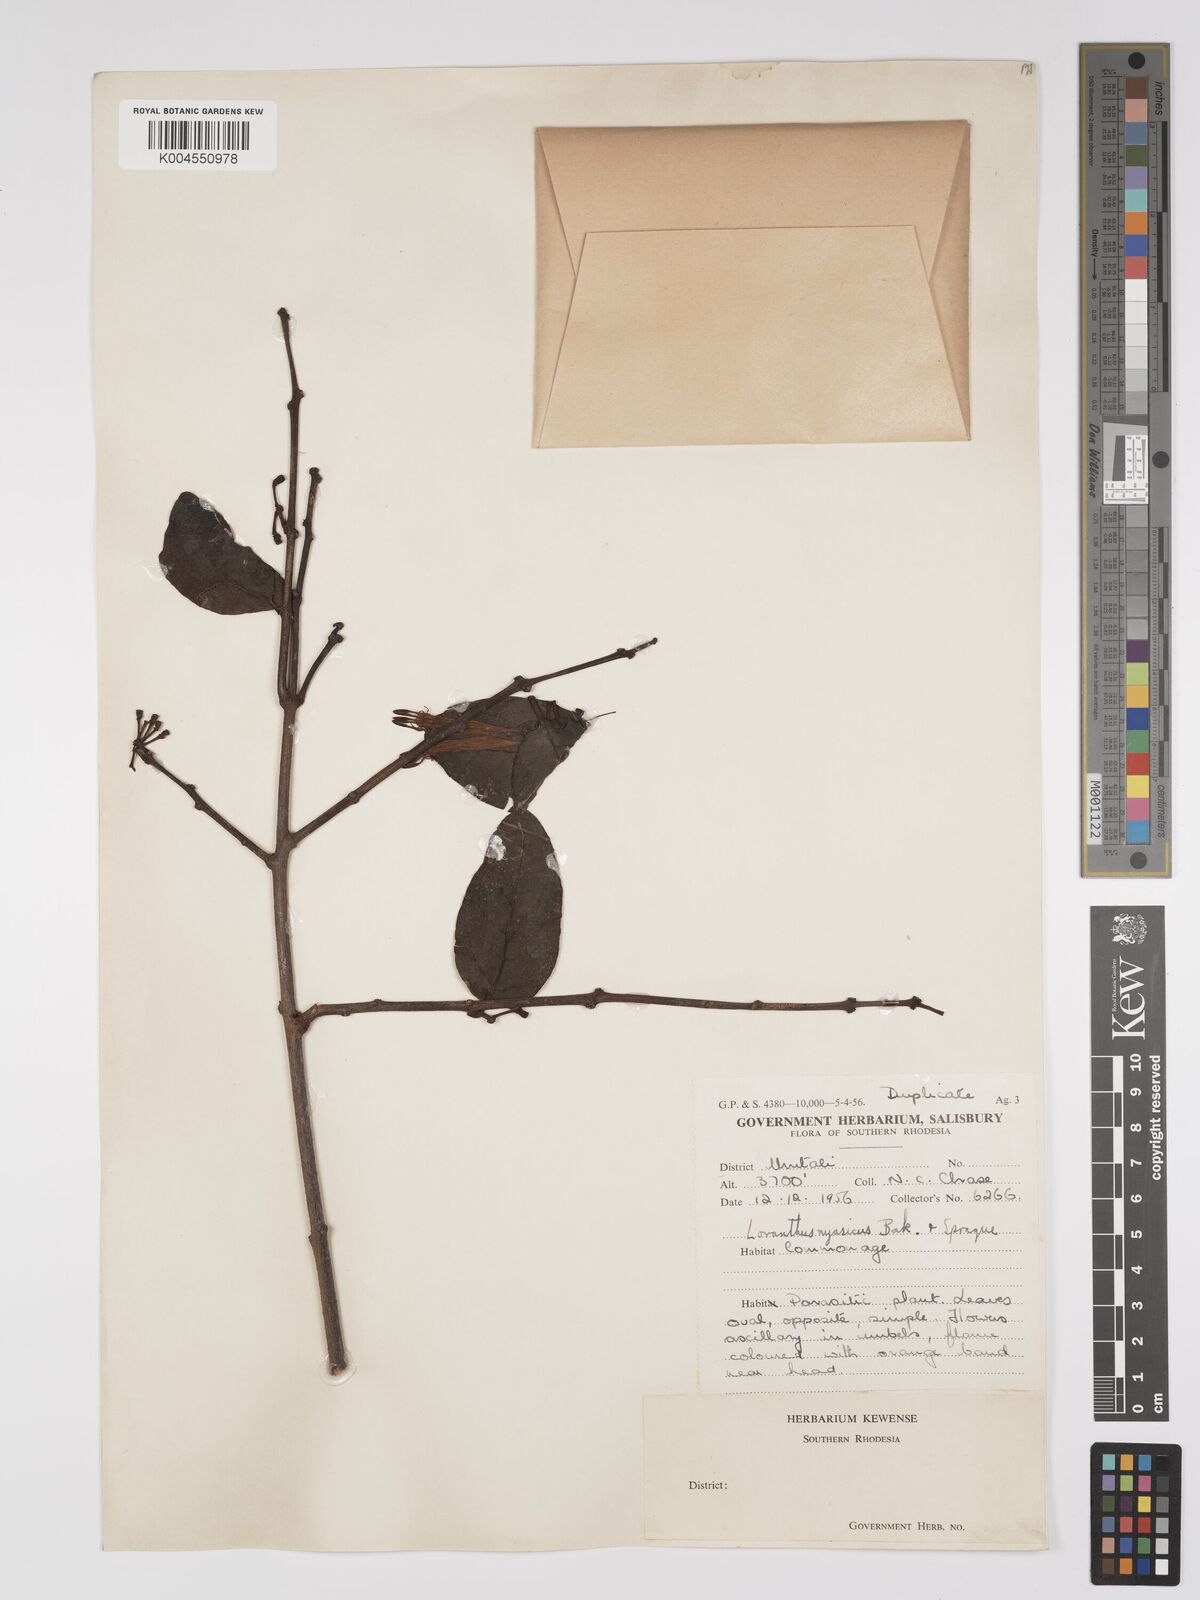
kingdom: Plantae
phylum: Tracheophyta
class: Magnoliopsida
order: Santalales
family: Loranthaceae
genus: Agelanthus
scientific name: Agelanthus flammeus
